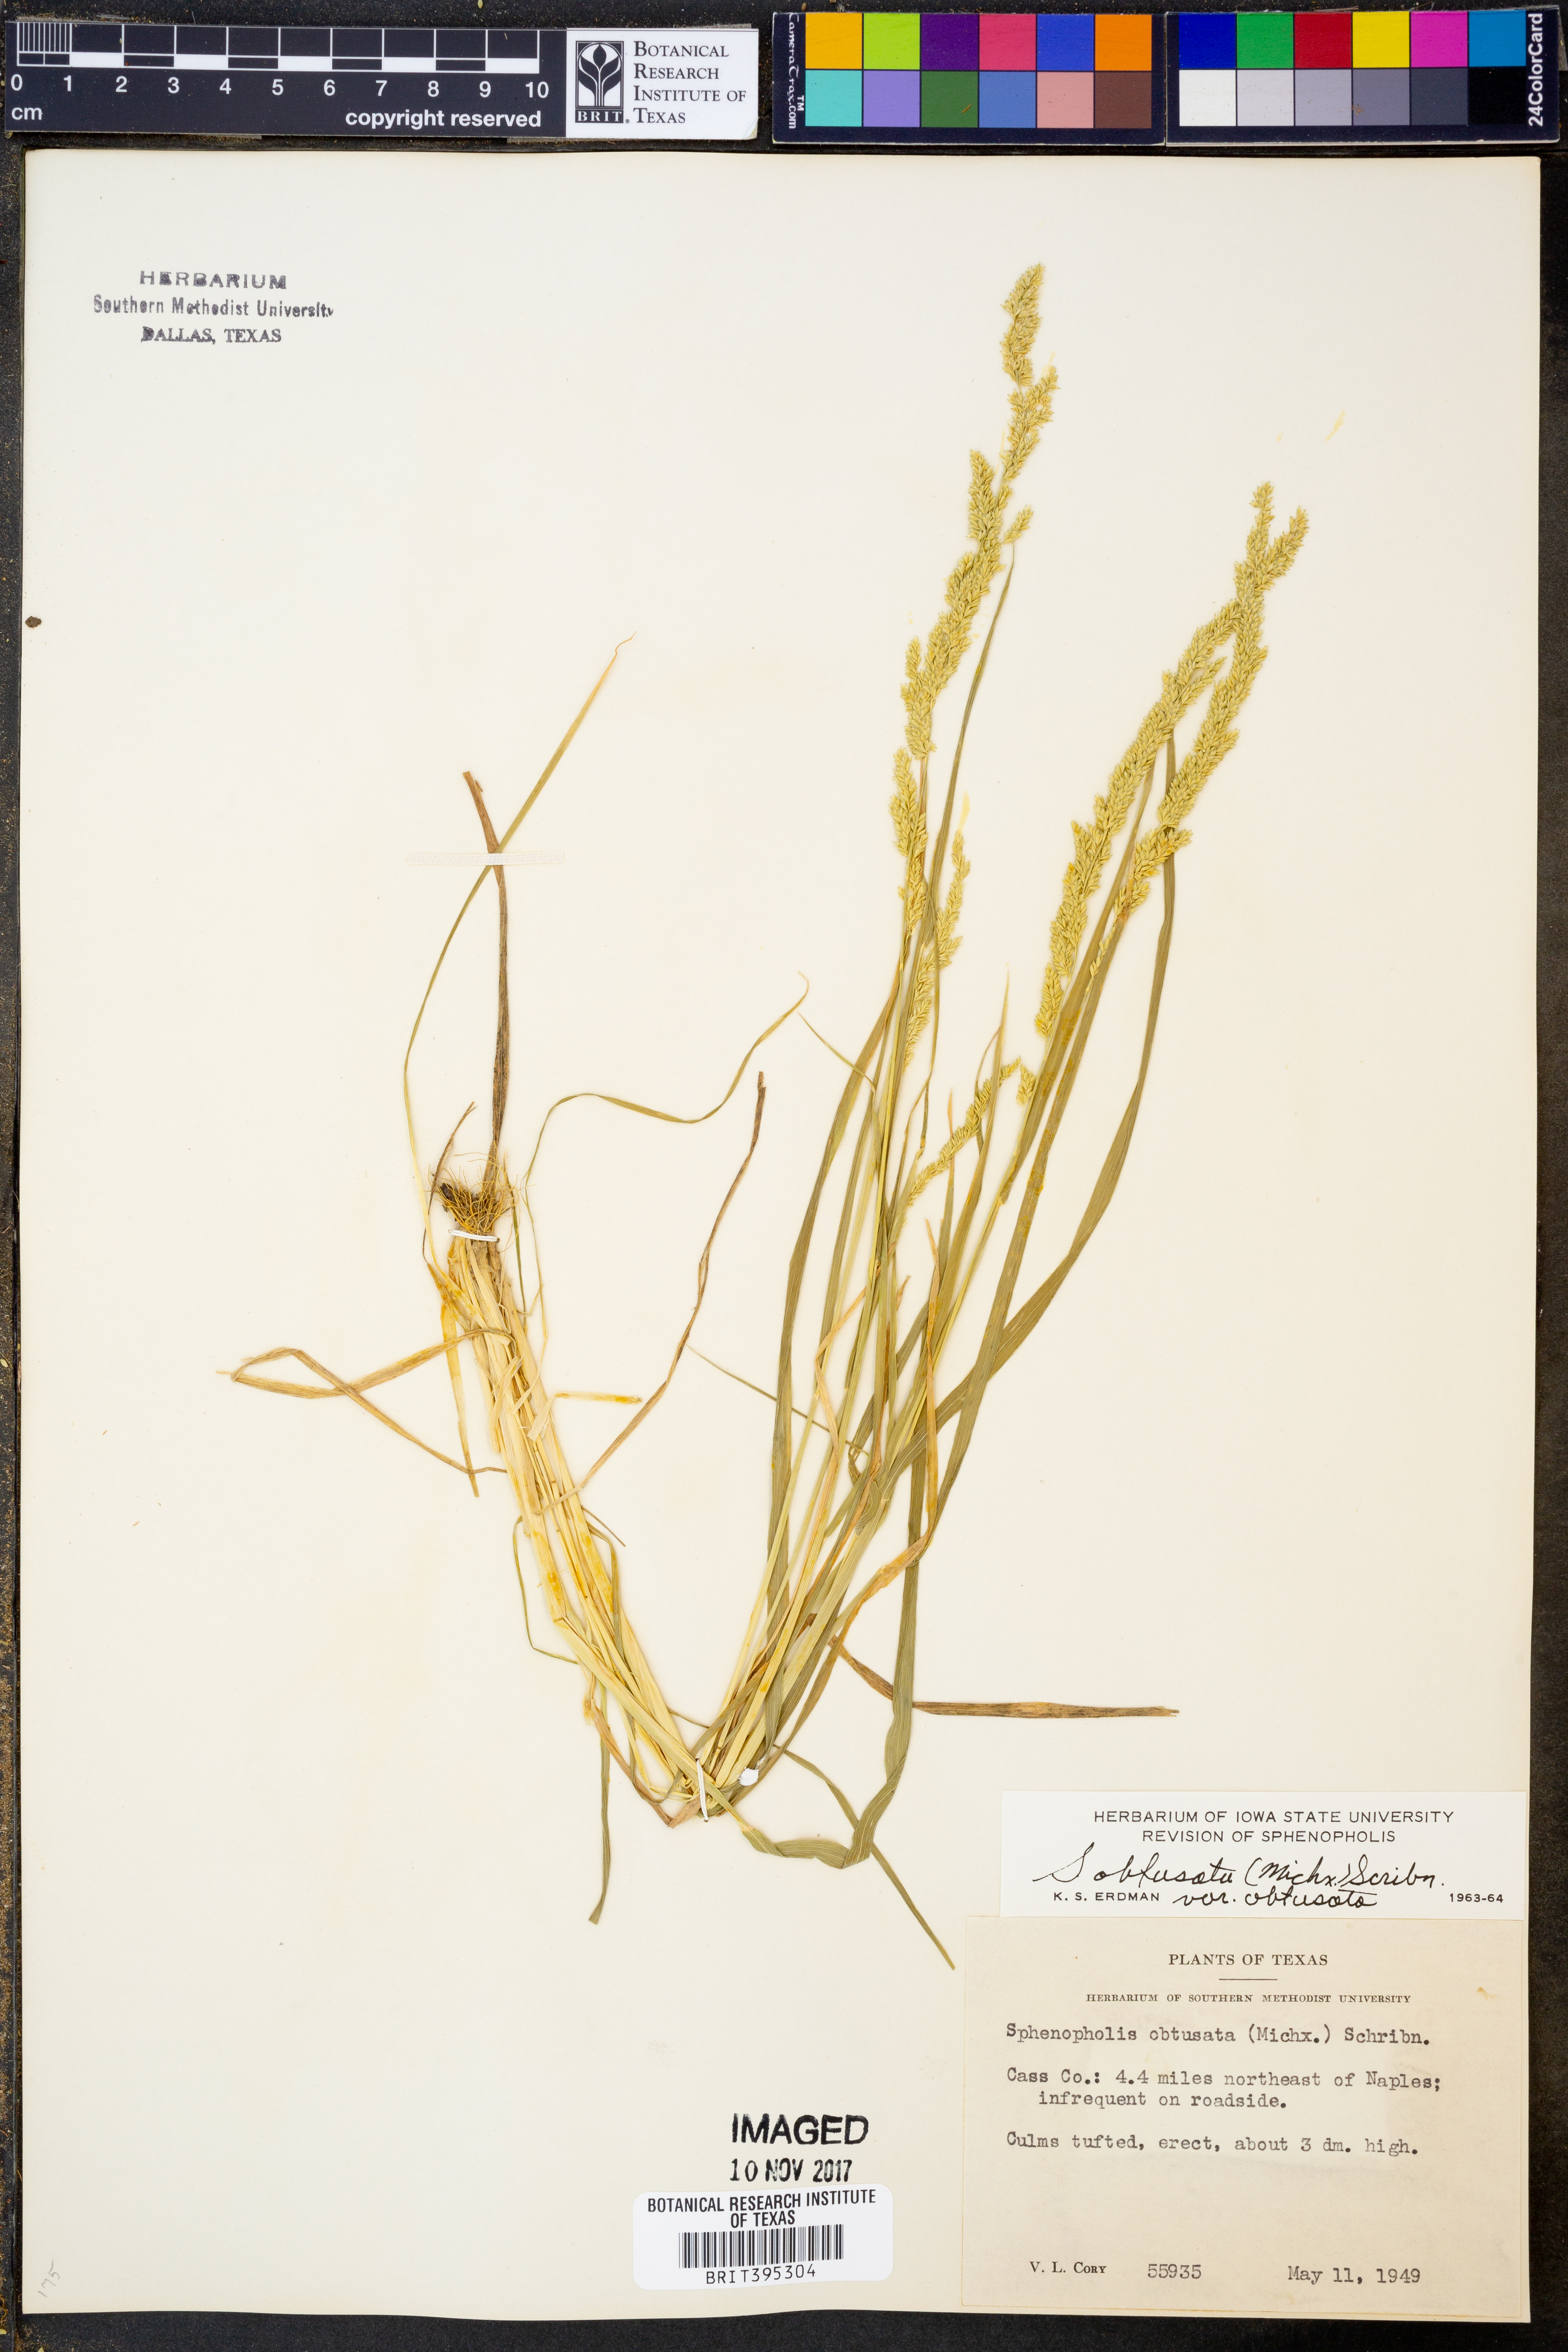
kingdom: Plantae
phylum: Tracheophyta
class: Liliopsida
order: Poales
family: Poaceae
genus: Sphenopholis
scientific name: Sphenopholis obtusata
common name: Prairie grass
